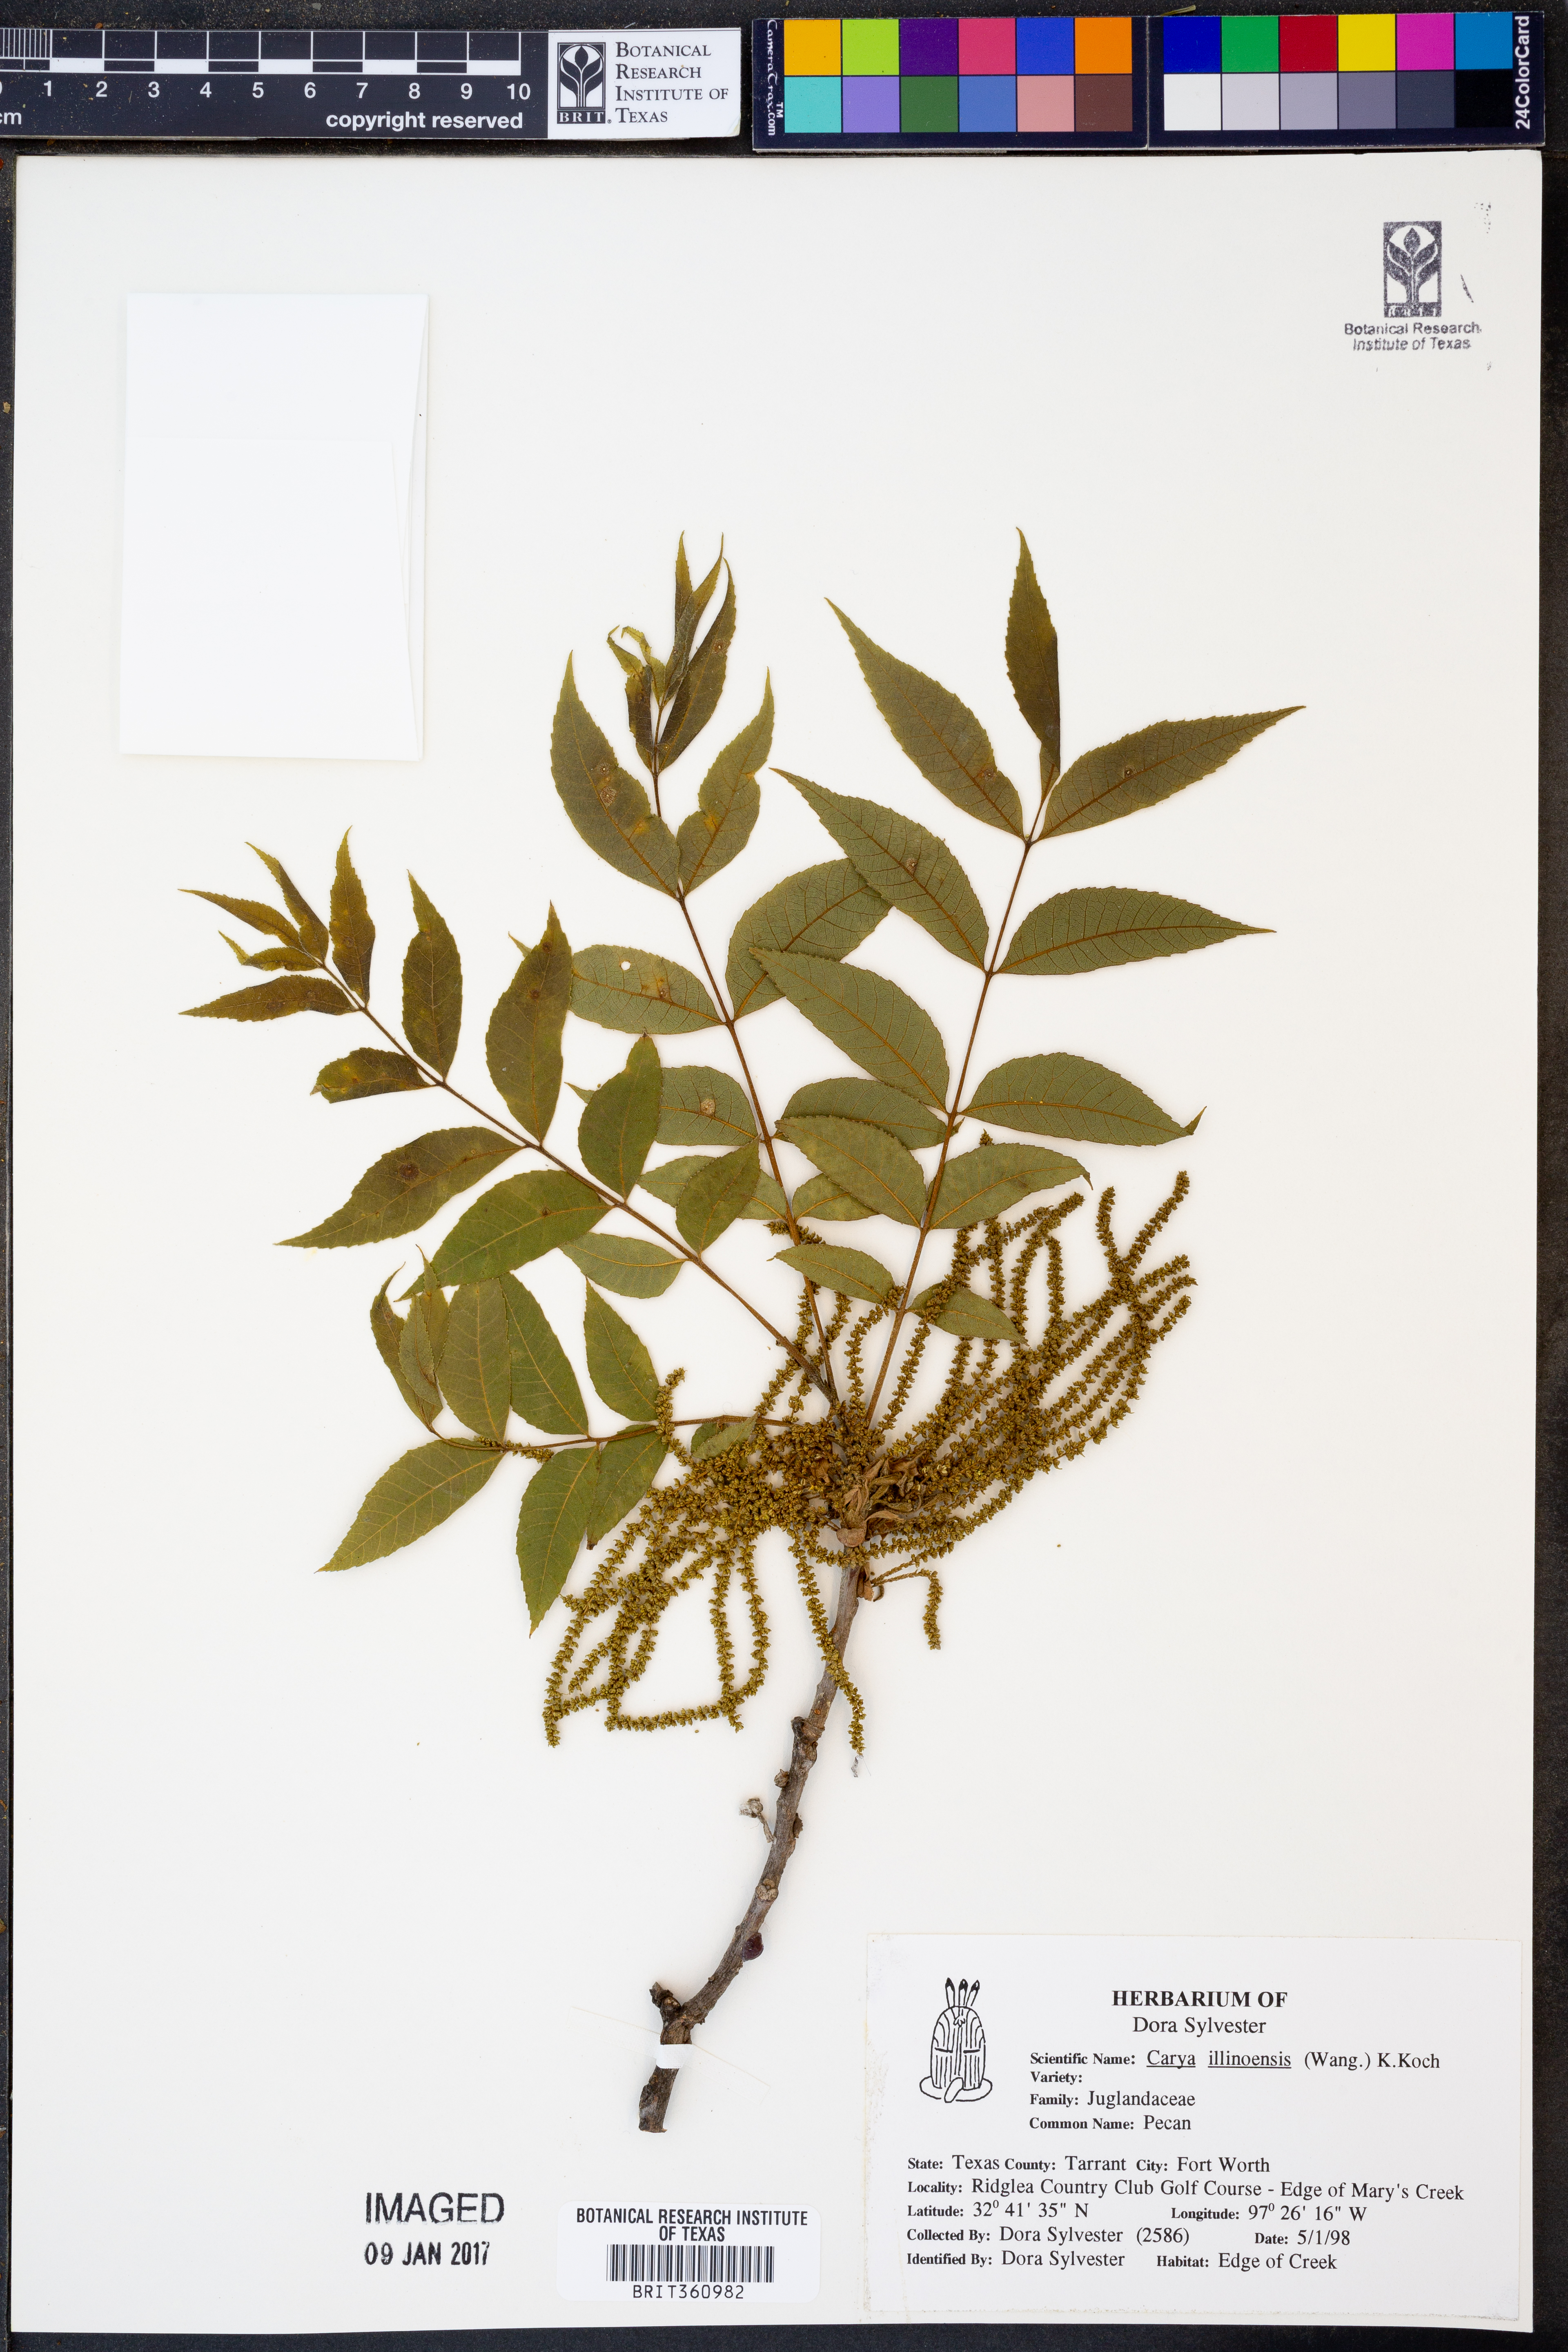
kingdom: Plantae
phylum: Tracheophyta
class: Magnoliopsida
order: Fagales
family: Juglandaceae
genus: Carya
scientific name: Carya illinoinensis
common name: Pecan
